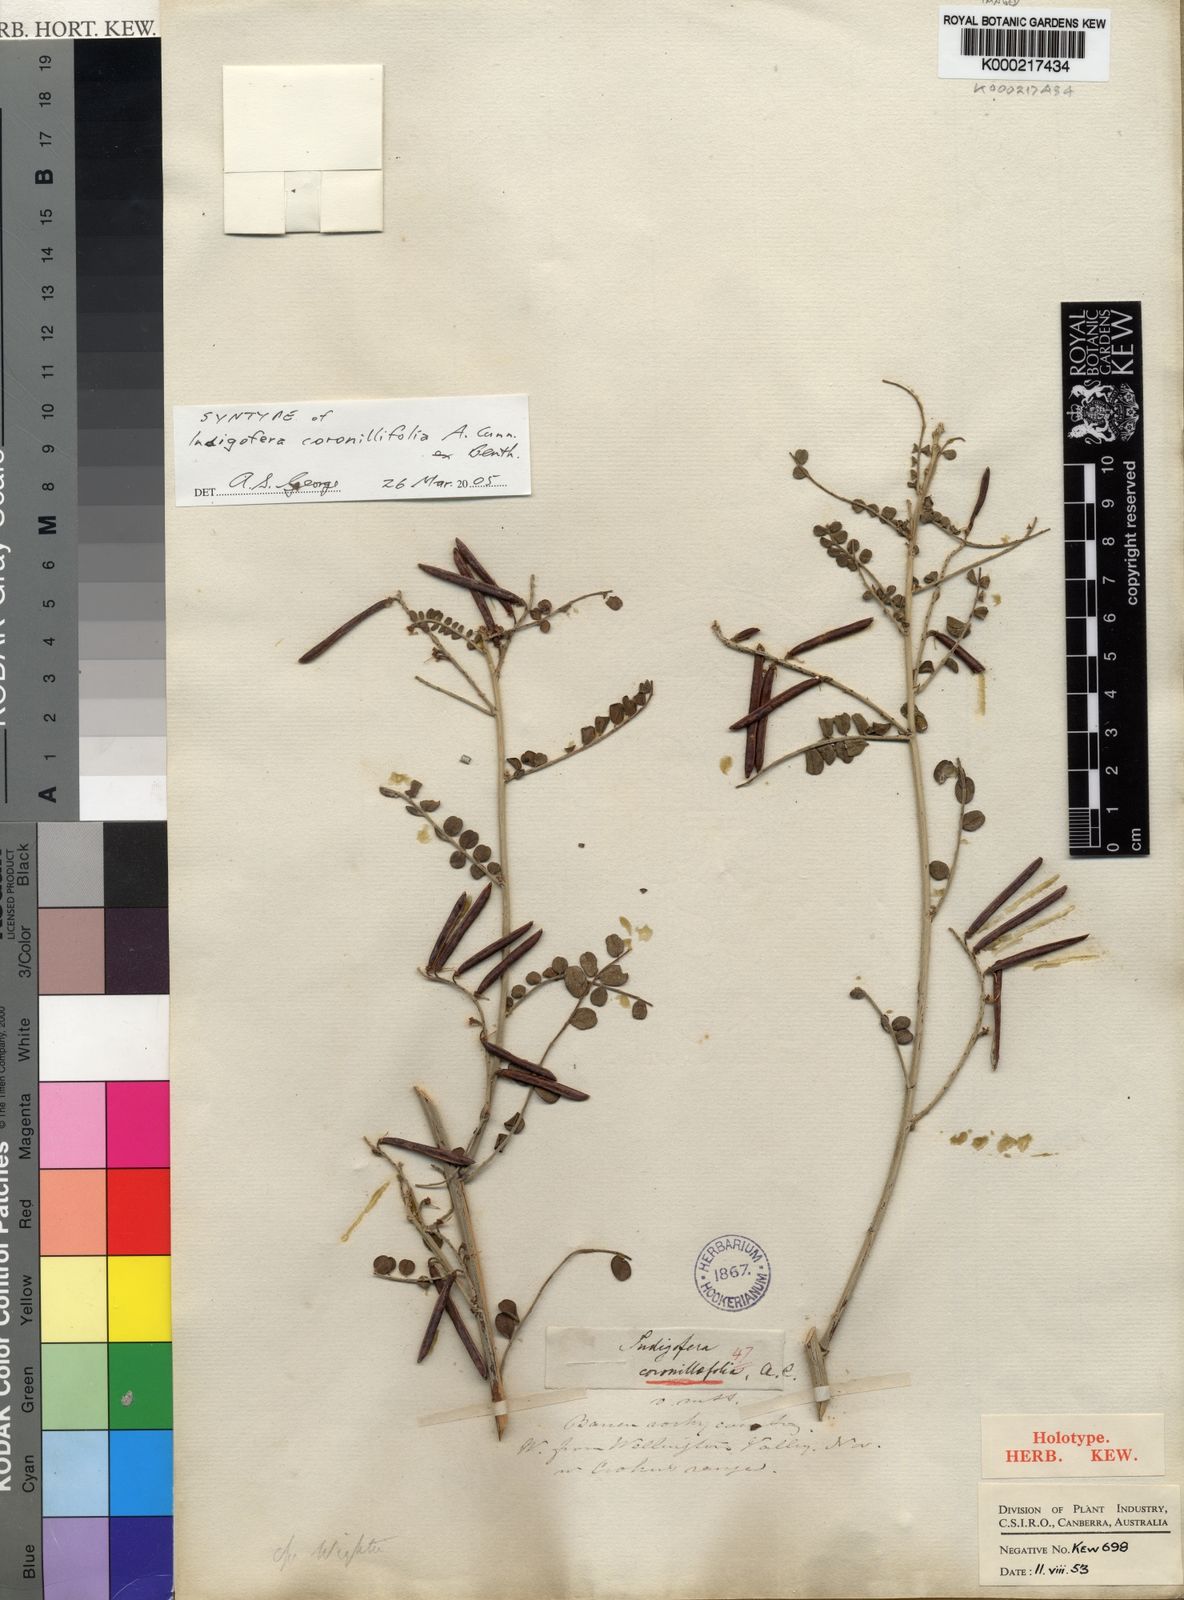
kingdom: Plantae
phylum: Tracheophyta
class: Magnoliopsida
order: Fabales
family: Fabaceae
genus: Indigofera
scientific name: Indigofera
